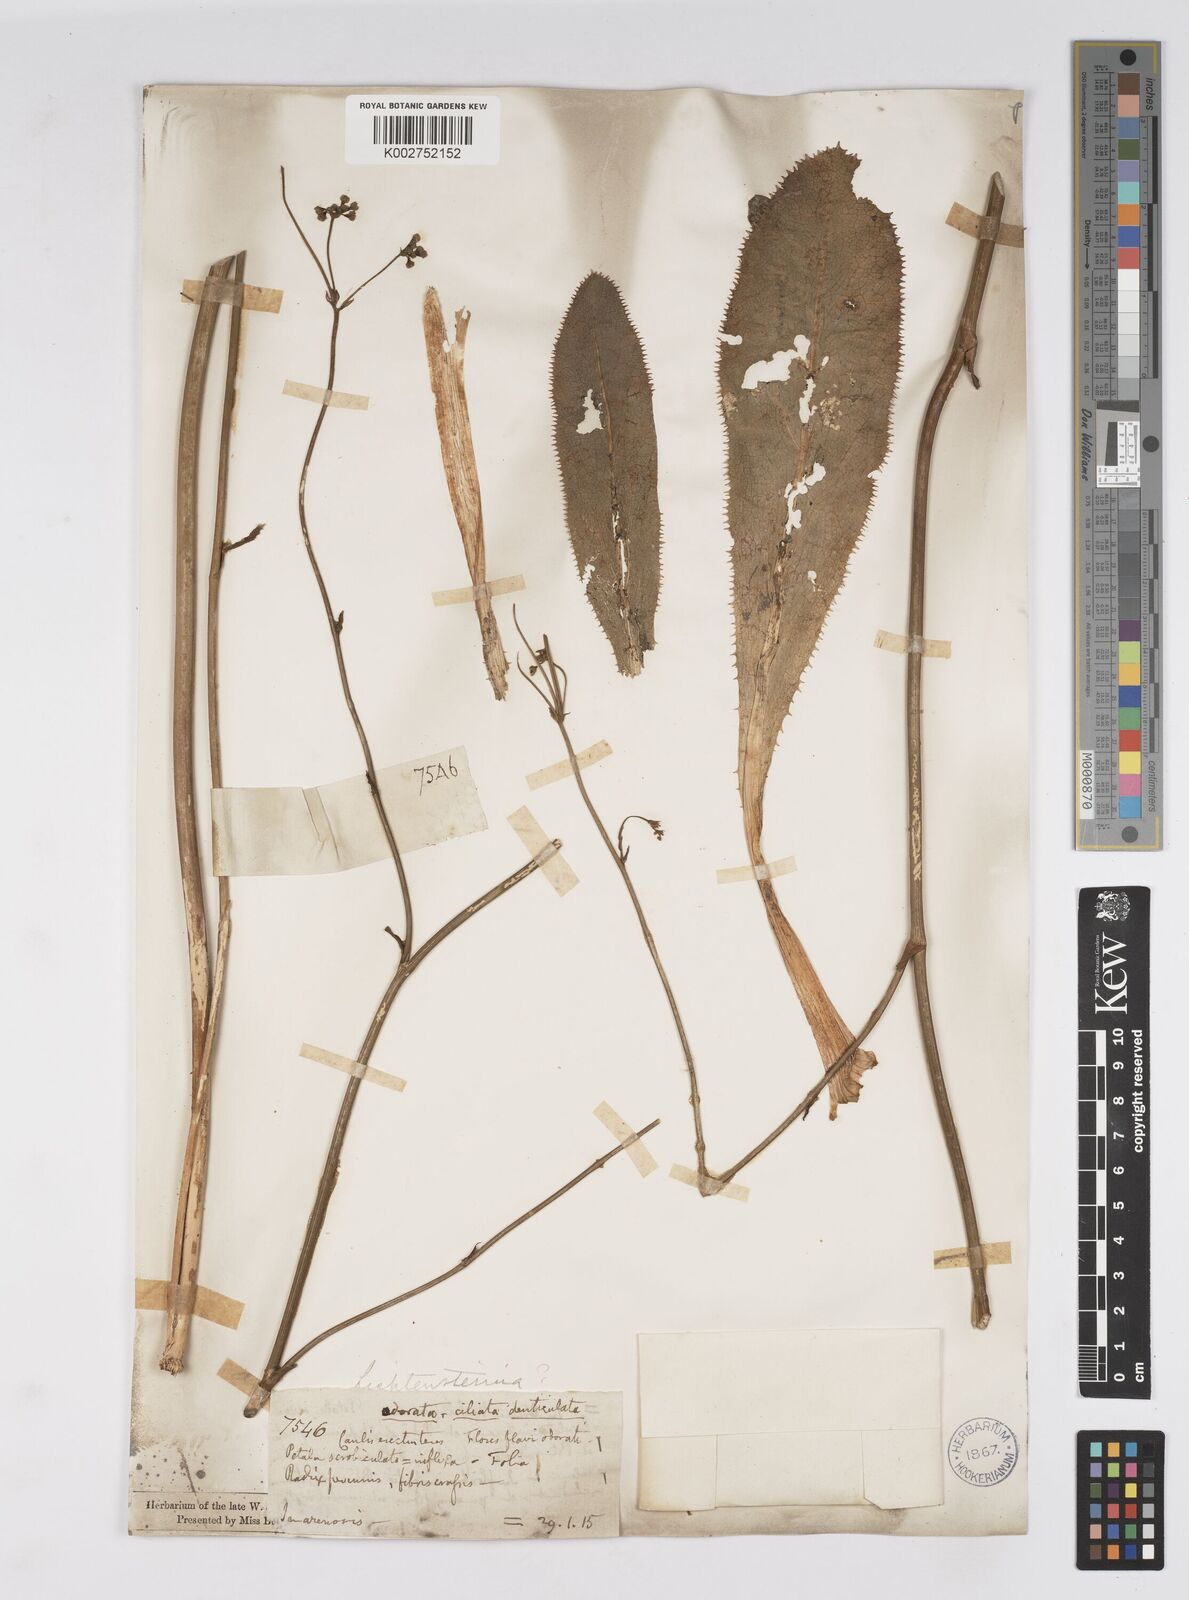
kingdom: Plantae
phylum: Tracheophyta
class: Magnoliopsida
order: Apiales
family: Apiaceae
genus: Lichtensteinia
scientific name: Lichtensteinia
